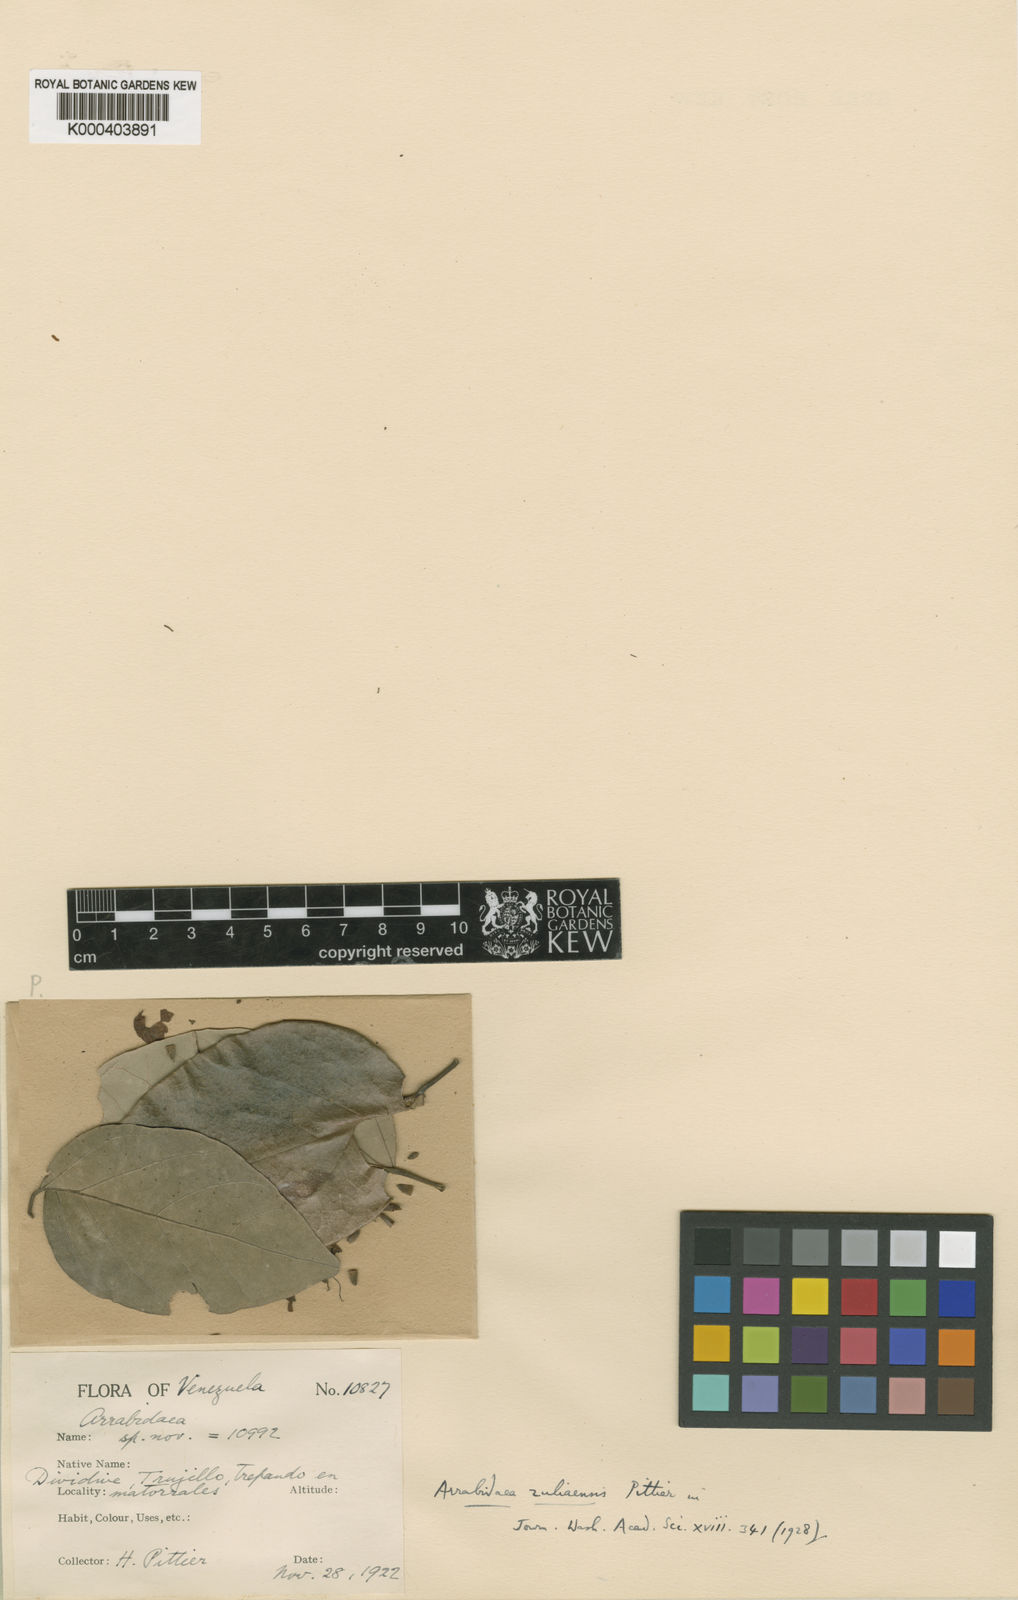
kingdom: Plantae
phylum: Tracheophyta
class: Magnoliopsida
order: Lamiales
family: Bignoniaceae
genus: Fridericia
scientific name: Fridericia candicans
